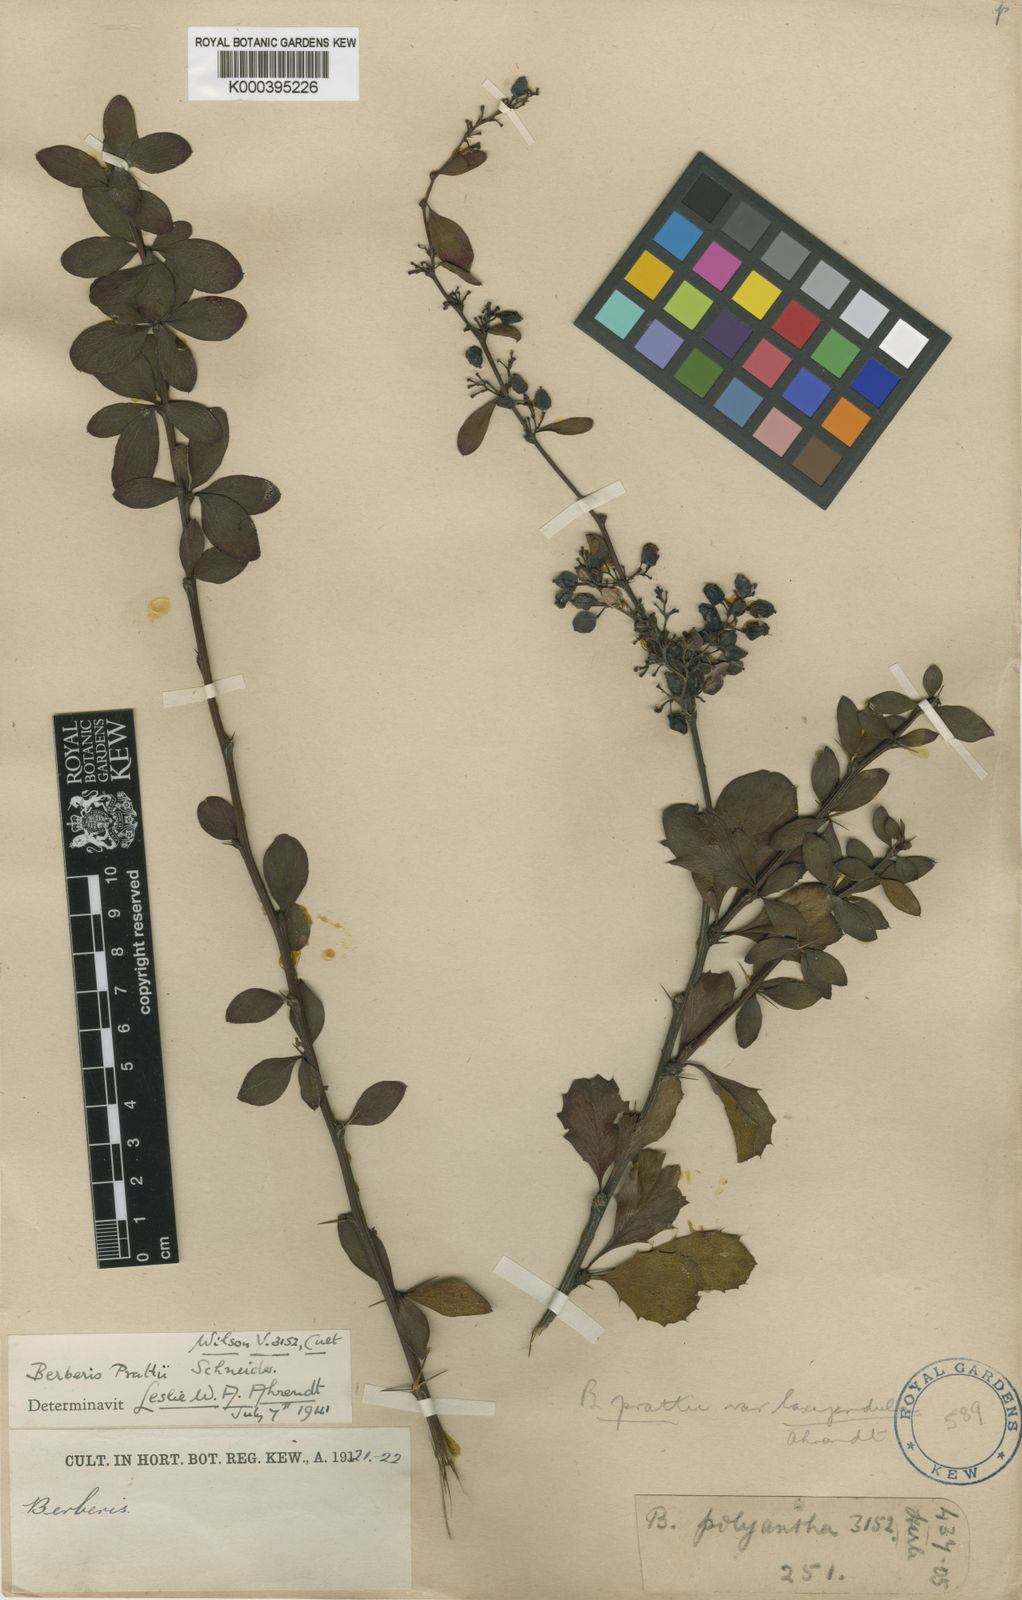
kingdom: Plantae
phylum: Tracheophyta
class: Magnoliopsida
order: Ranunculales
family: Berberidaceae
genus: Berberis
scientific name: Berberis prattii
